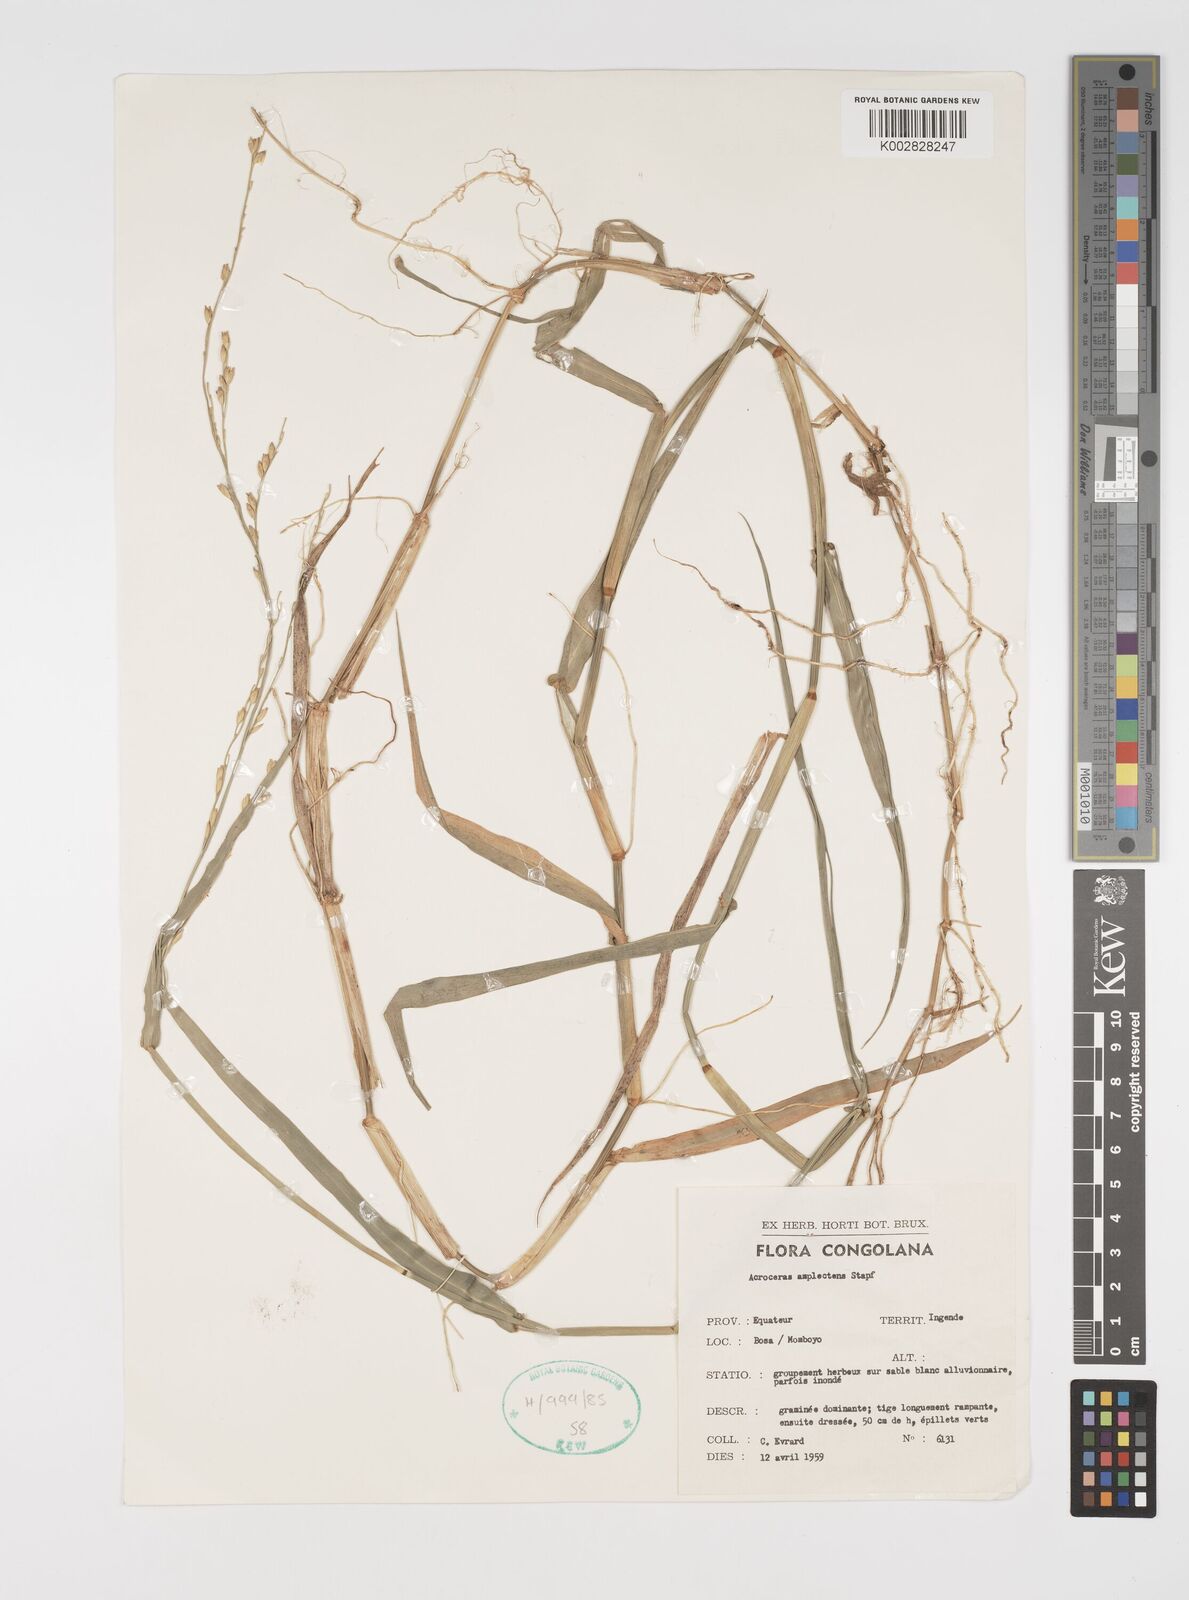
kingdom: Plantae
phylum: Tracheophyta
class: Liliopsida
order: Poales
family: Poaceae
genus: Acroceras
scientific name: Acroceras amplectens
